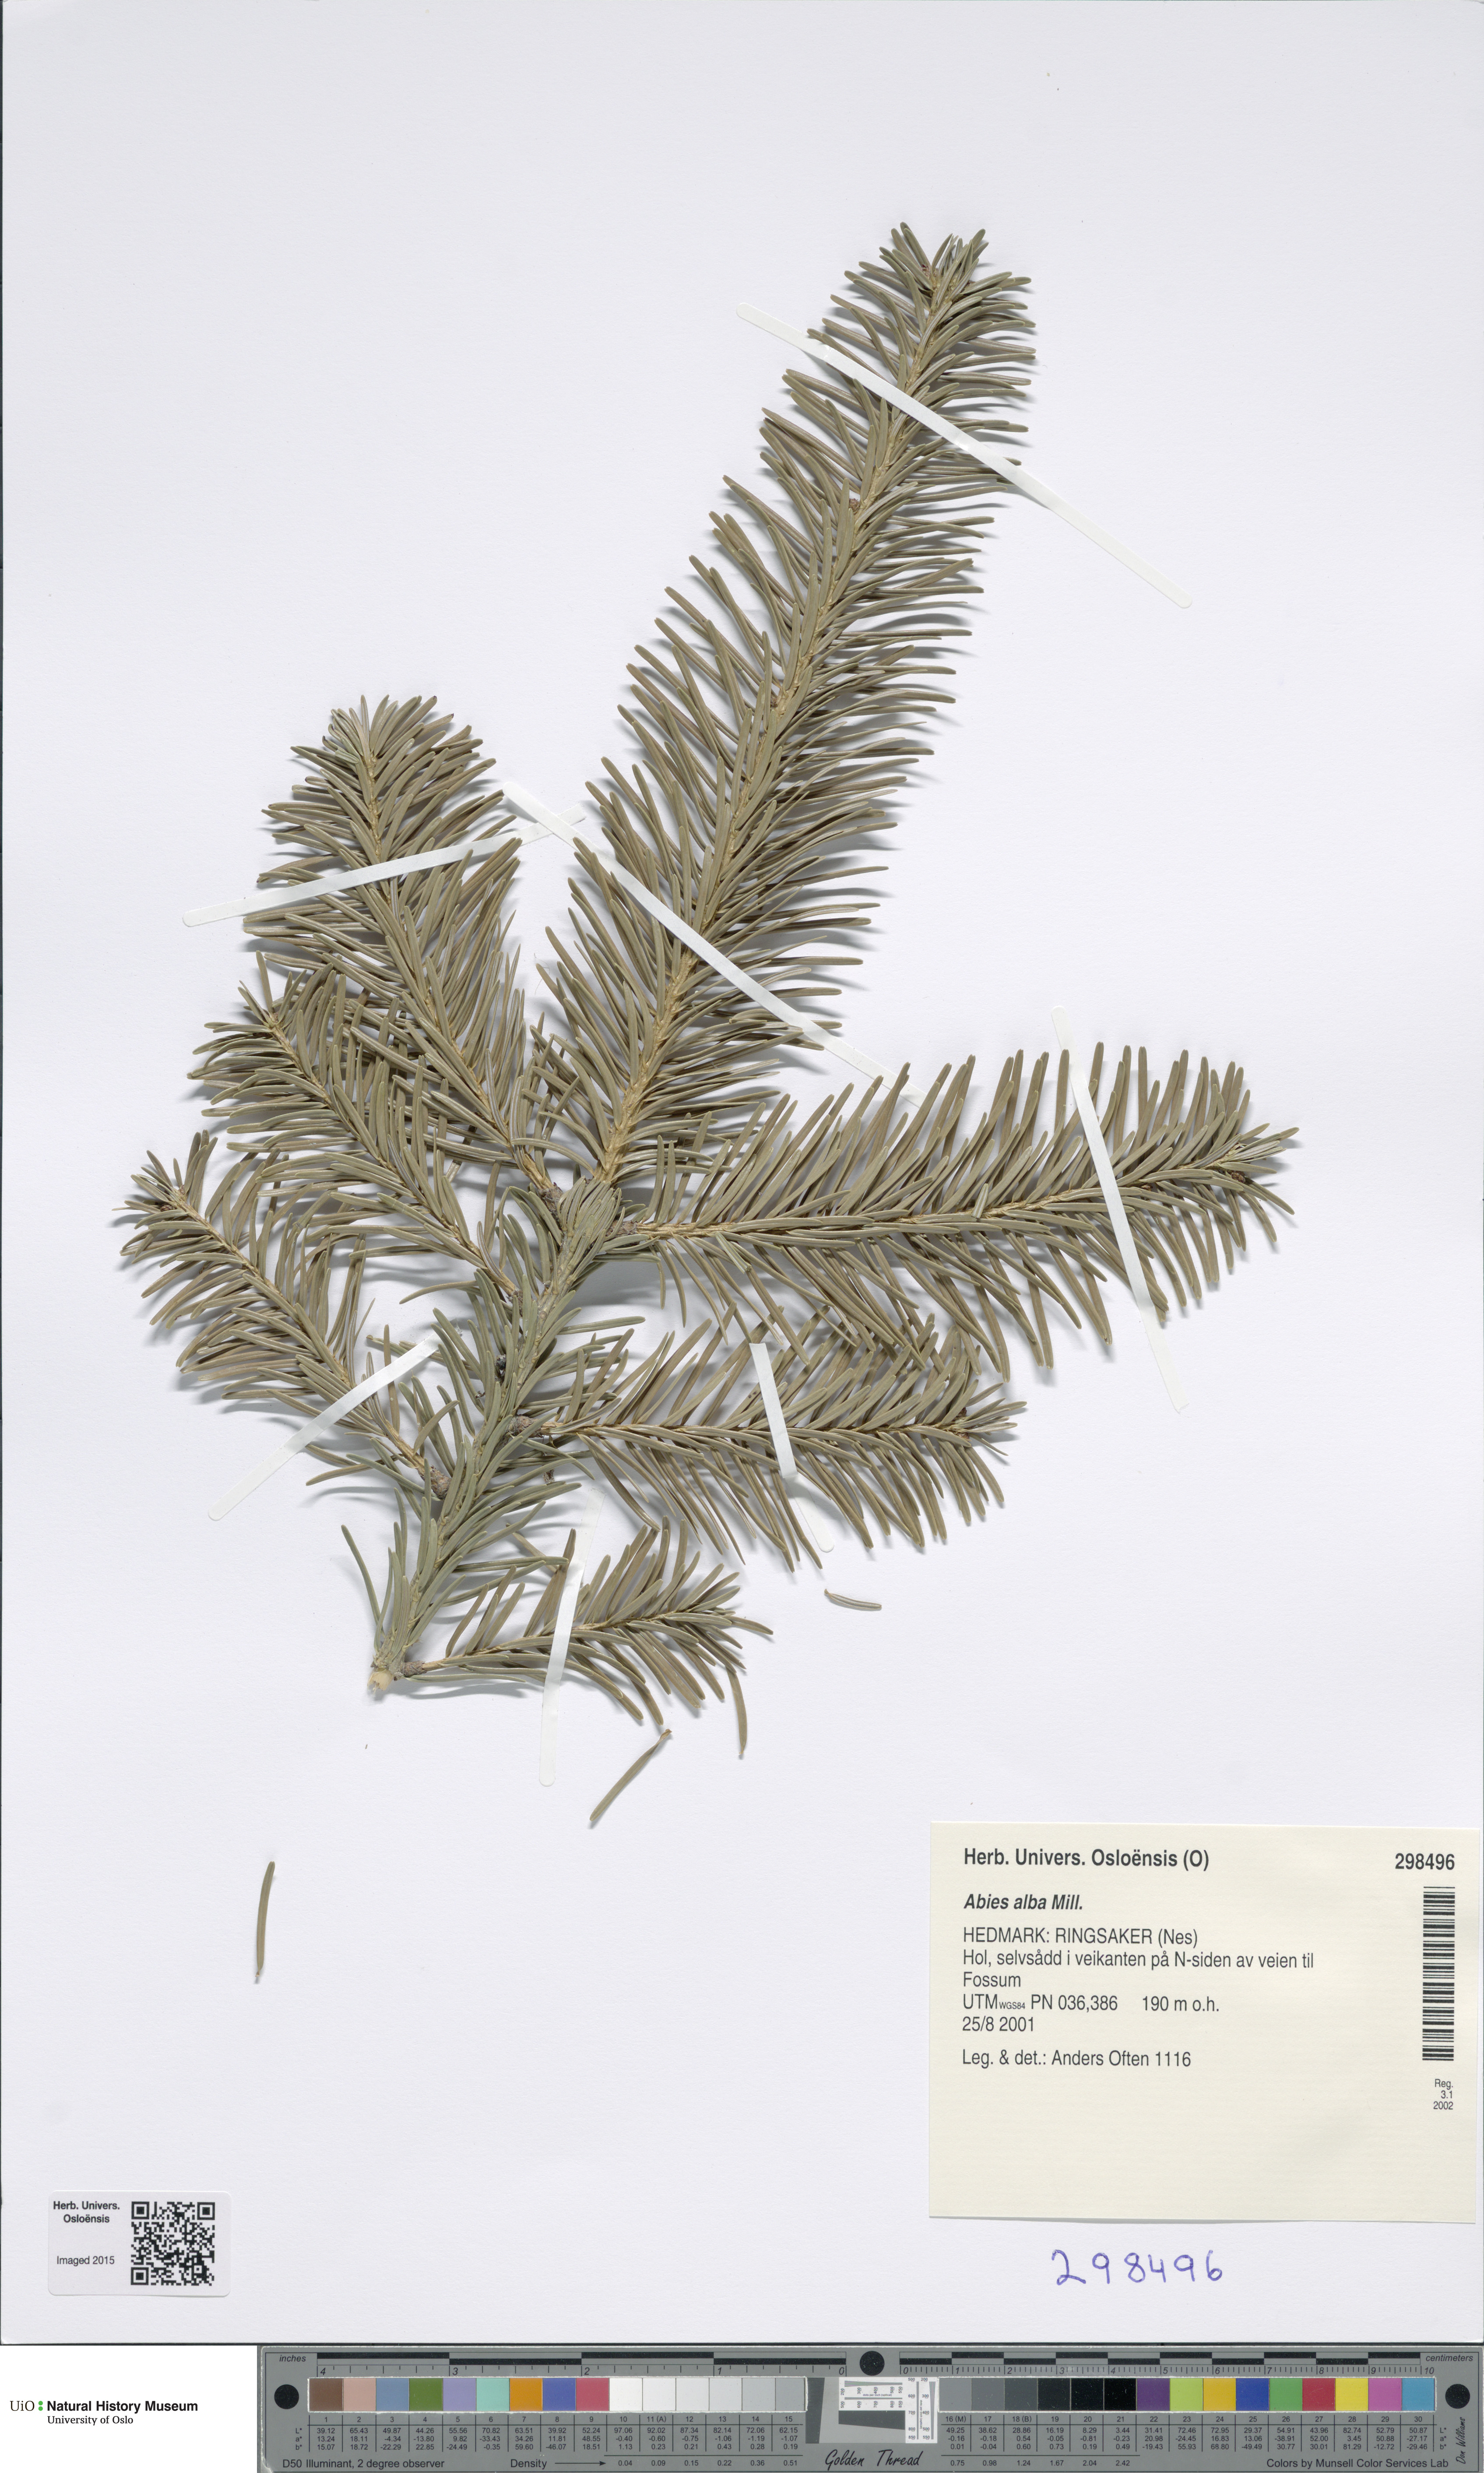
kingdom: Plantae
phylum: Tracheophyta
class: Pinopsida
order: Pinales
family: Pinaceae
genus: Abies
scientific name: Abies lasiocarpa
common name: Subalpine fir
